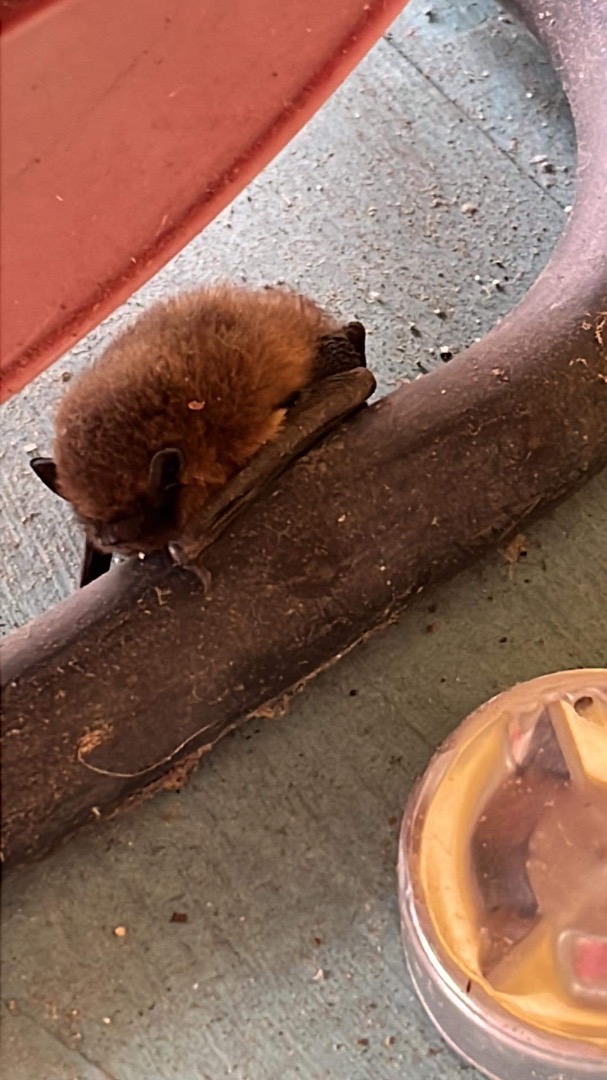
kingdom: Animalia
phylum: Chordata
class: Mammalia
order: Chiroptera
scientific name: Chiroptera
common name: Flagermus
